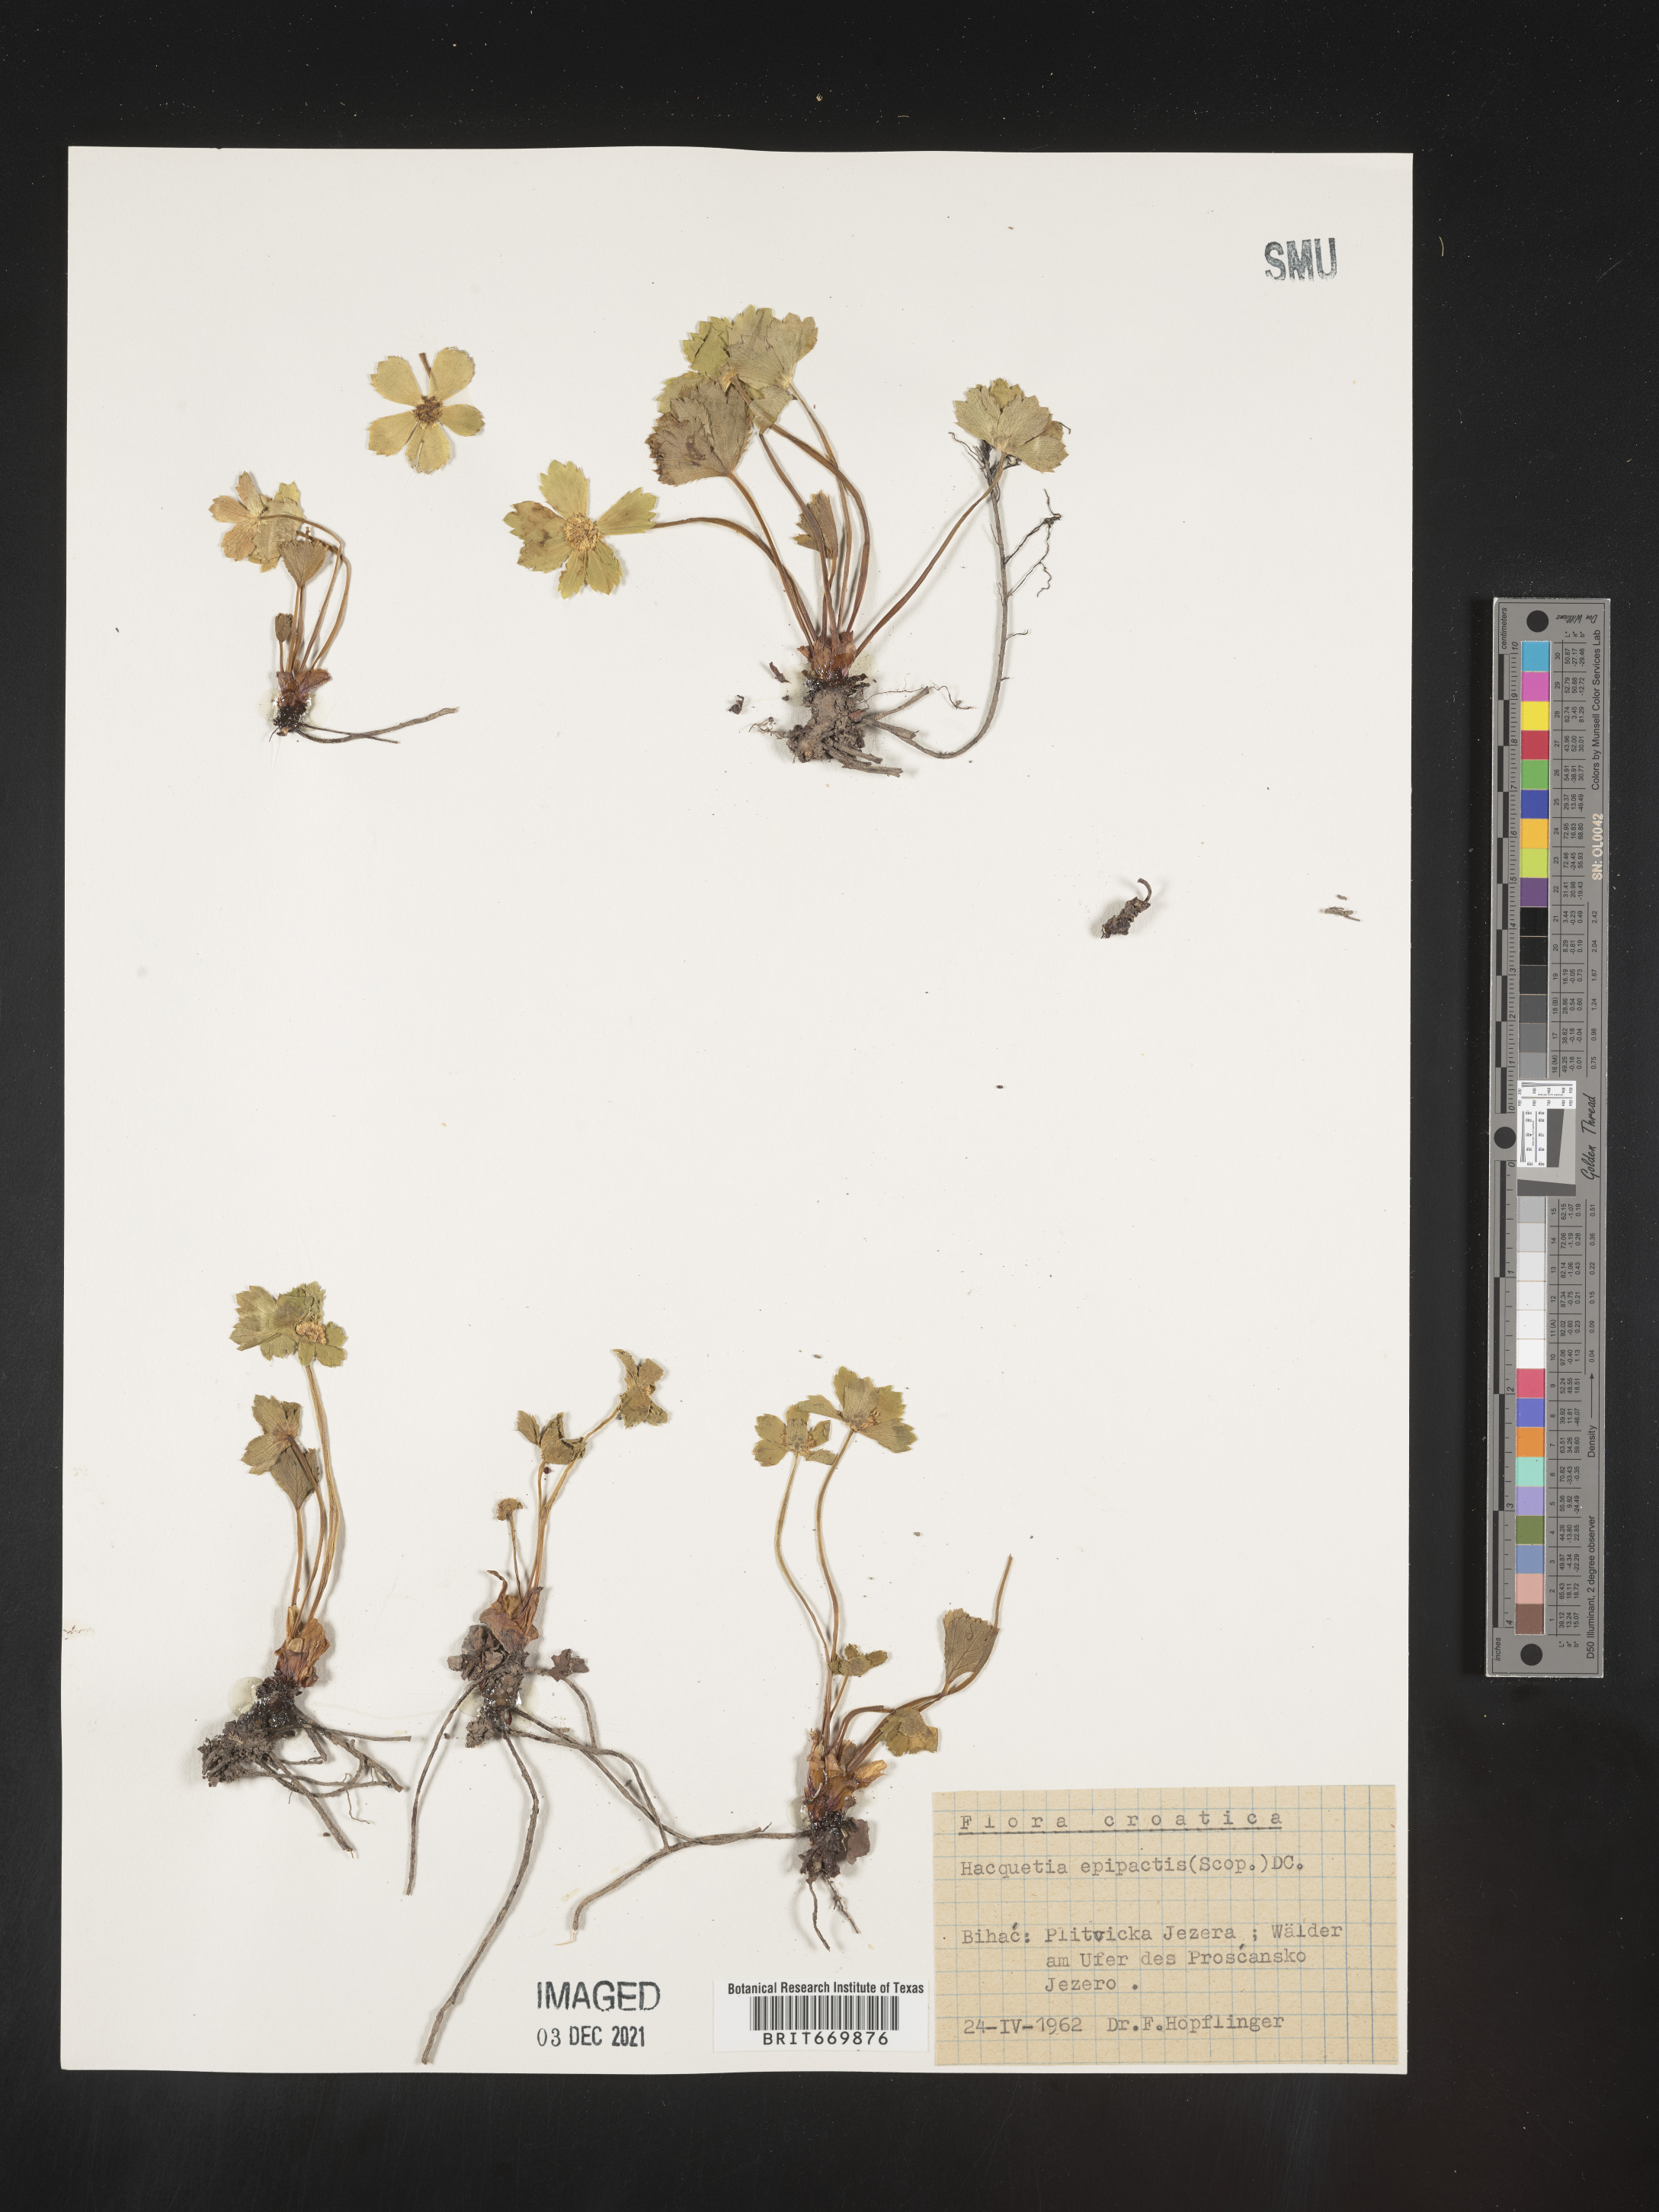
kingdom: Plantae
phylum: Tracheophyta
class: Magnoliopsida
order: Apiales
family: Apiaceae
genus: Hacquetia
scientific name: Hacquetia
